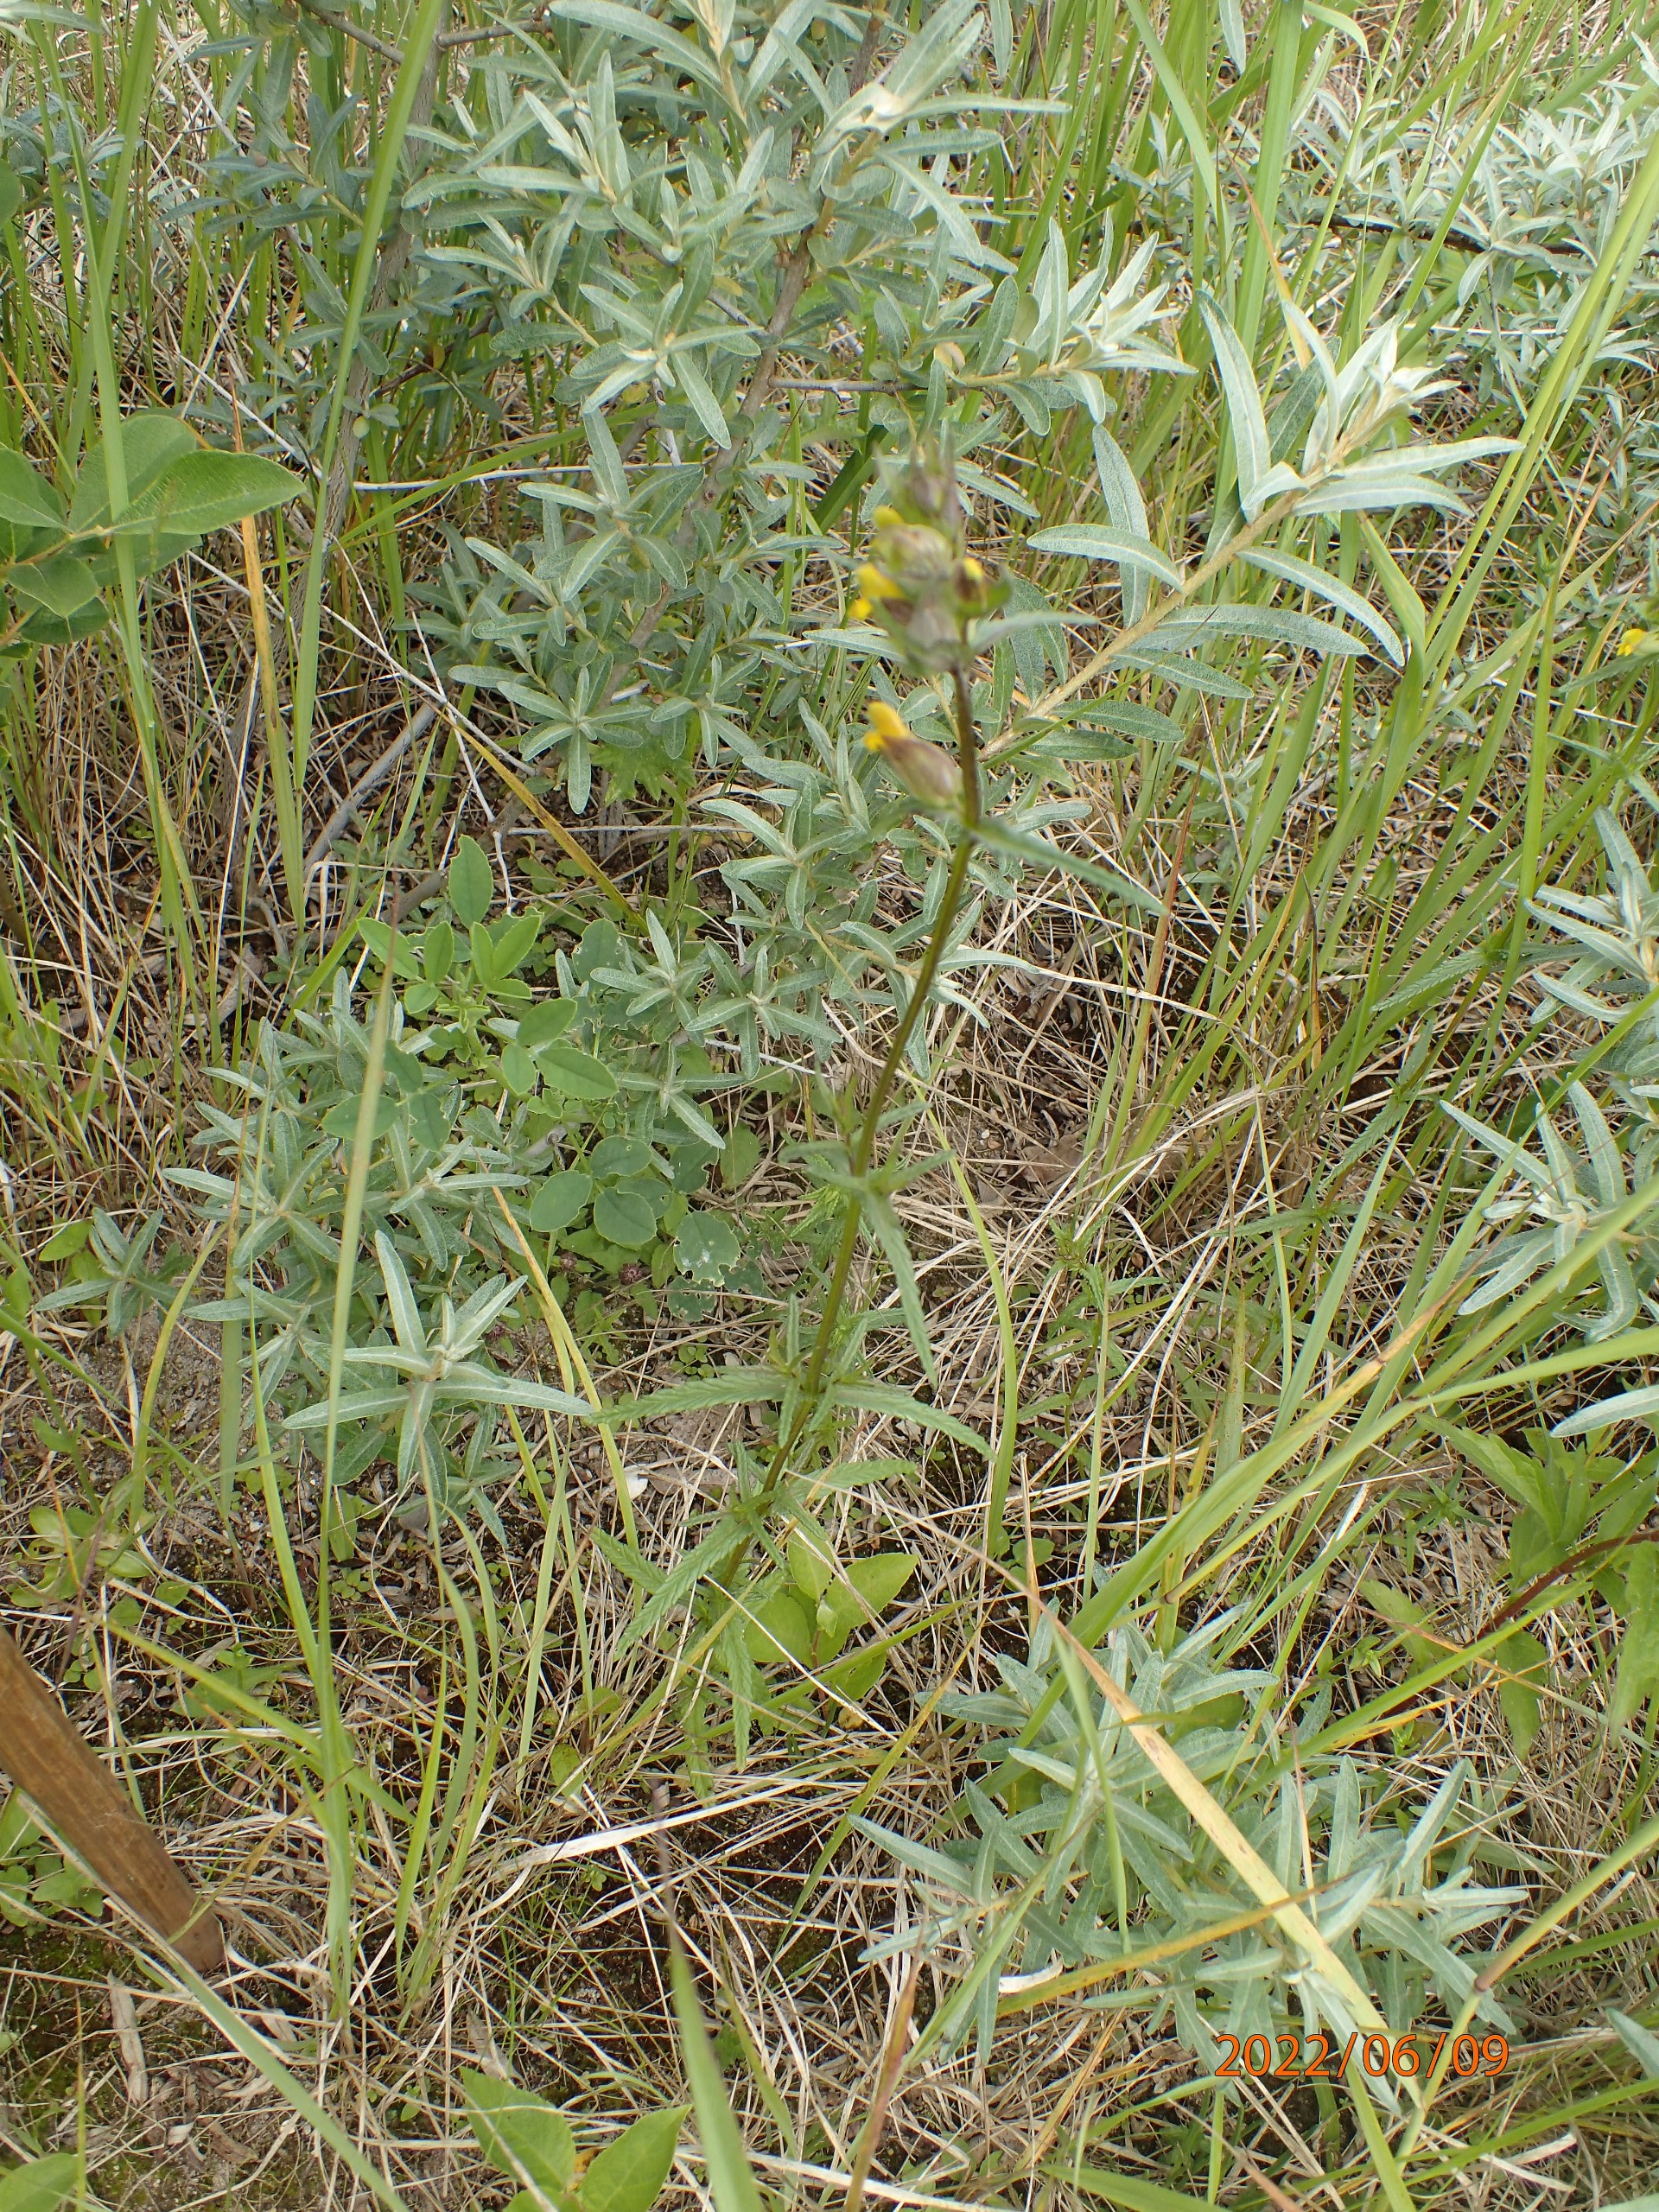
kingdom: Plantae
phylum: Tracheophyta
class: Magnoliopsida
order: Lamiales
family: Orobanchaceae
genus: Rhinanthus
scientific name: Rhinanthus minor
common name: Liden skjaller
